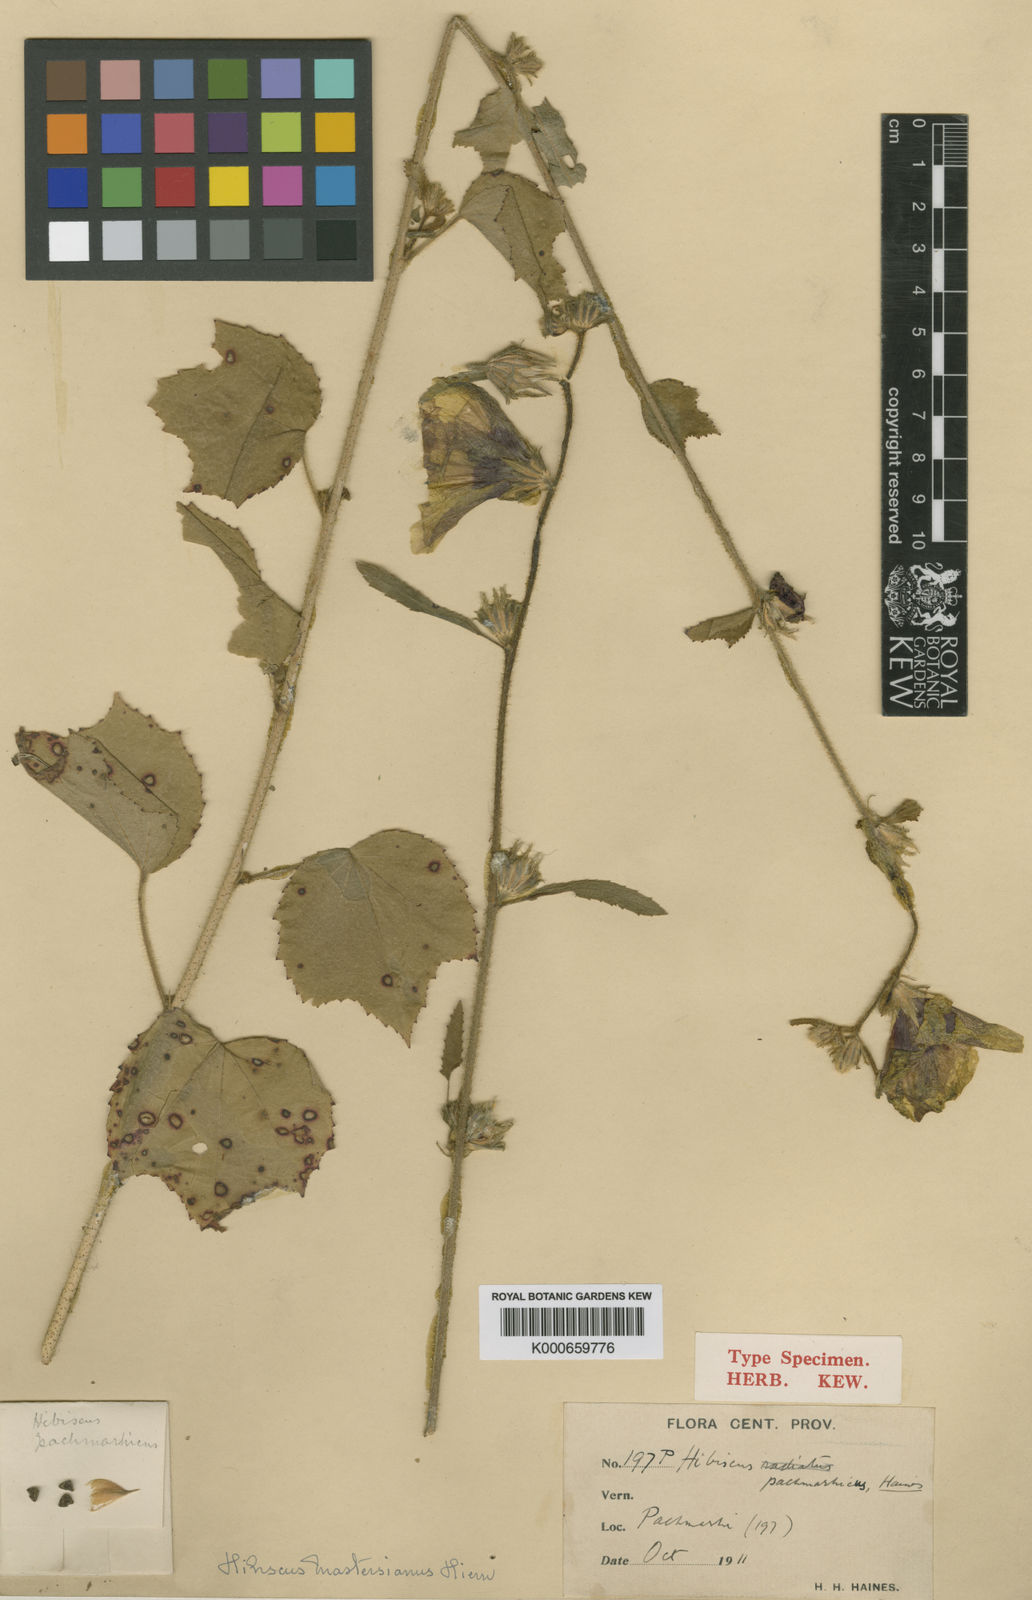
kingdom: Plantae
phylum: Tracheophyta
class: Magnoliopsida
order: Malvales
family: Malvaceae
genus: Hibiscus
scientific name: Hibiscus mastersianus
